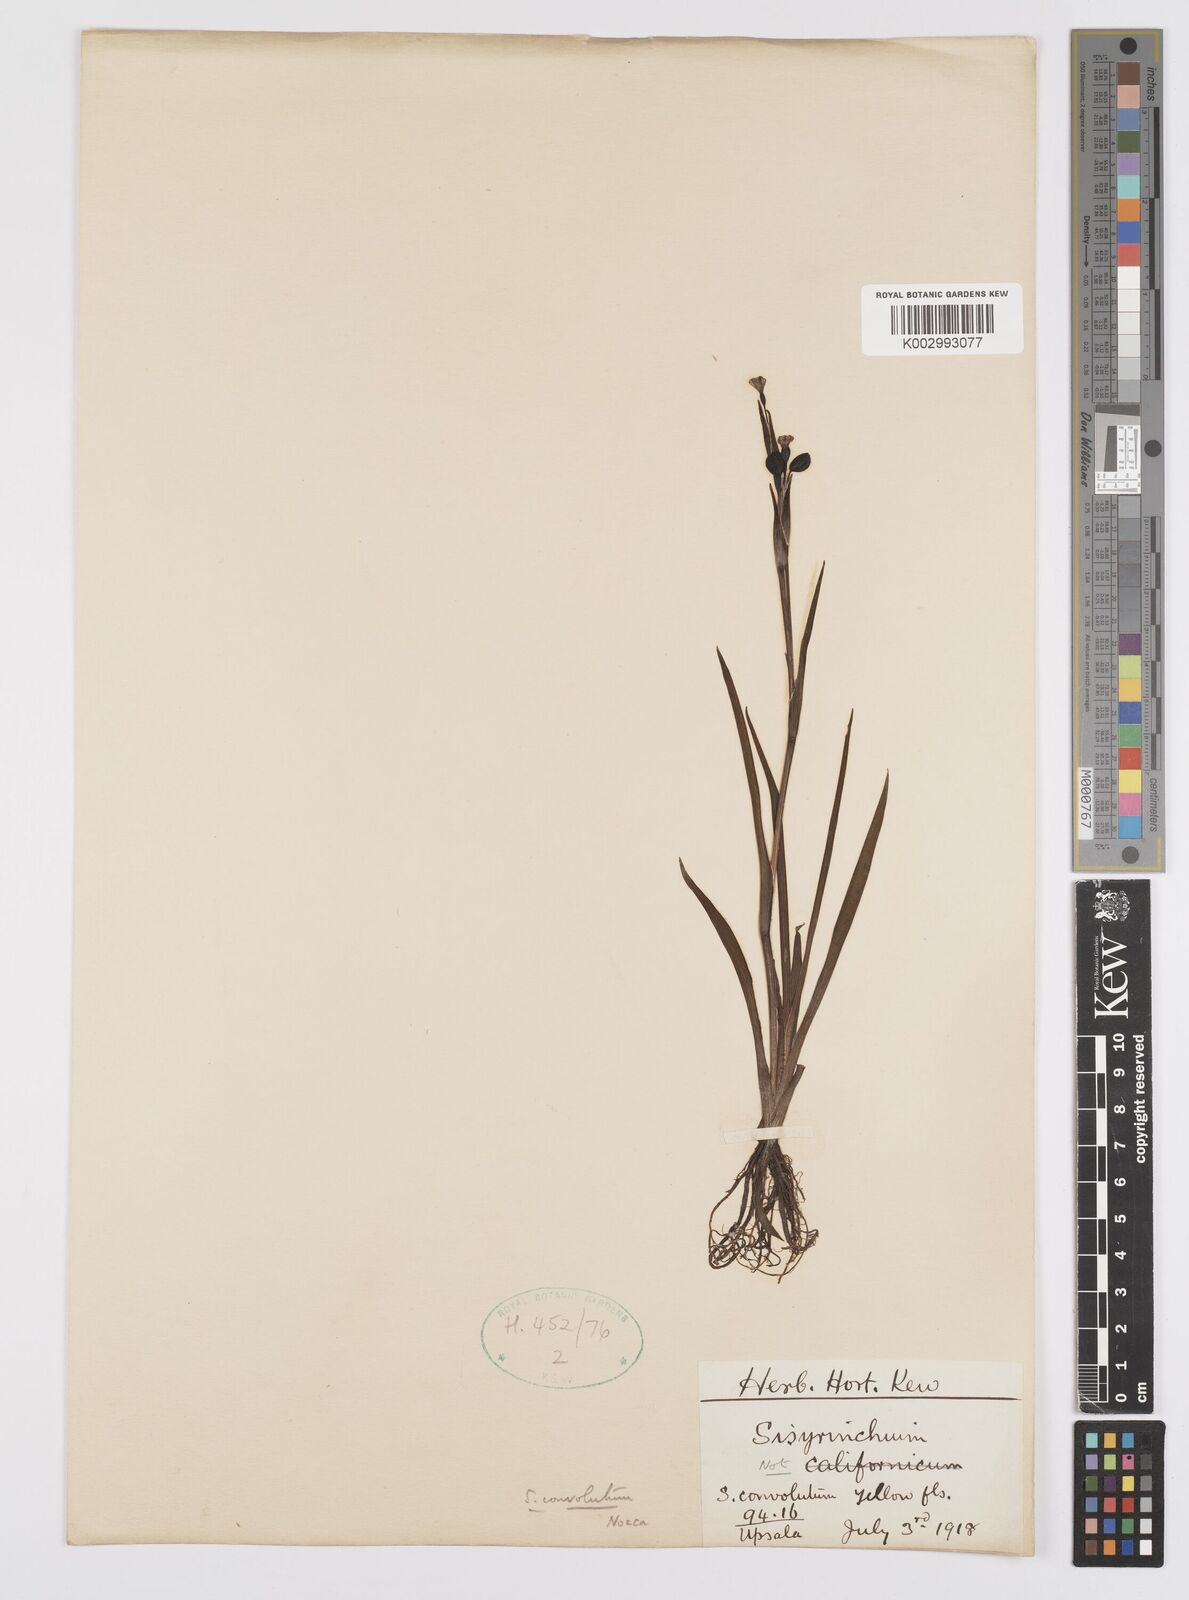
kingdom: Plantae
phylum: Tracheophyta
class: Liliopsida
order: Asparagales
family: Iridaceae
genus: Sisyrinchium
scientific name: Sisyrinchium convolutum
